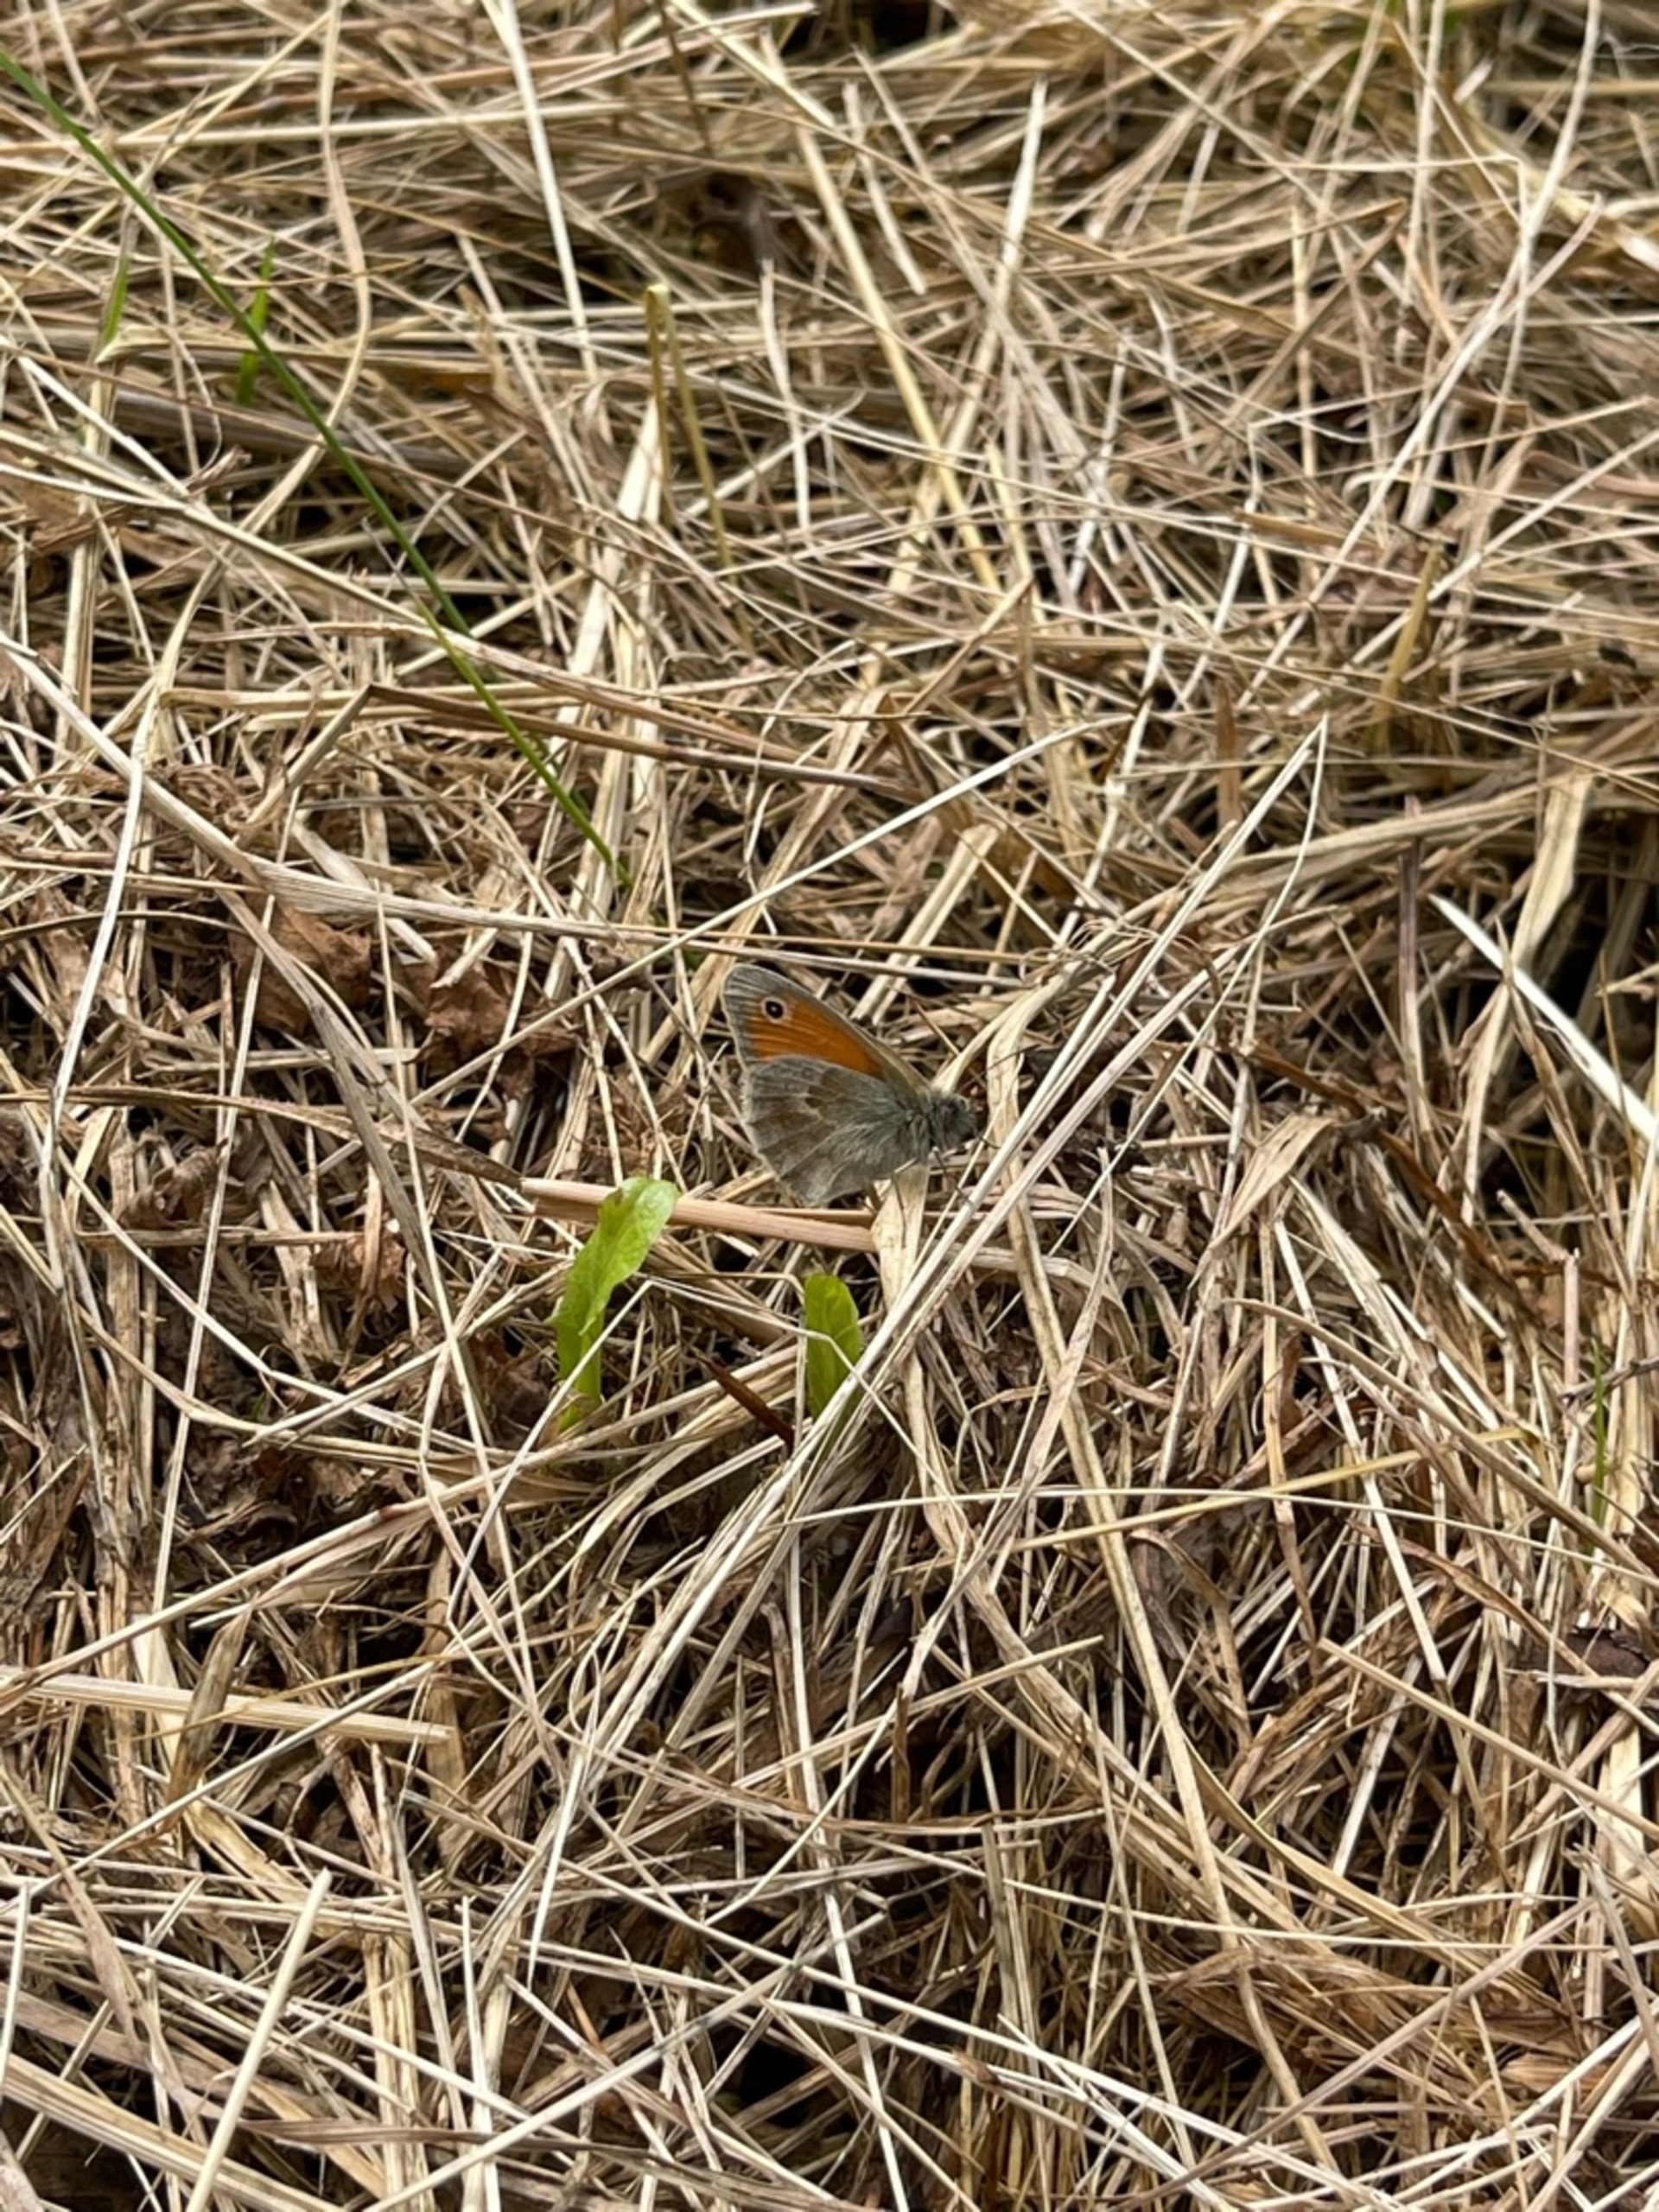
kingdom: Animalia
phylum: Arthropoda
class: Insecta
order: Lepidoptera
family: Nymphalidae
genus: Coenonympha
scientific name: Coenonympha pamphilus
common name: Okkergul randøje
